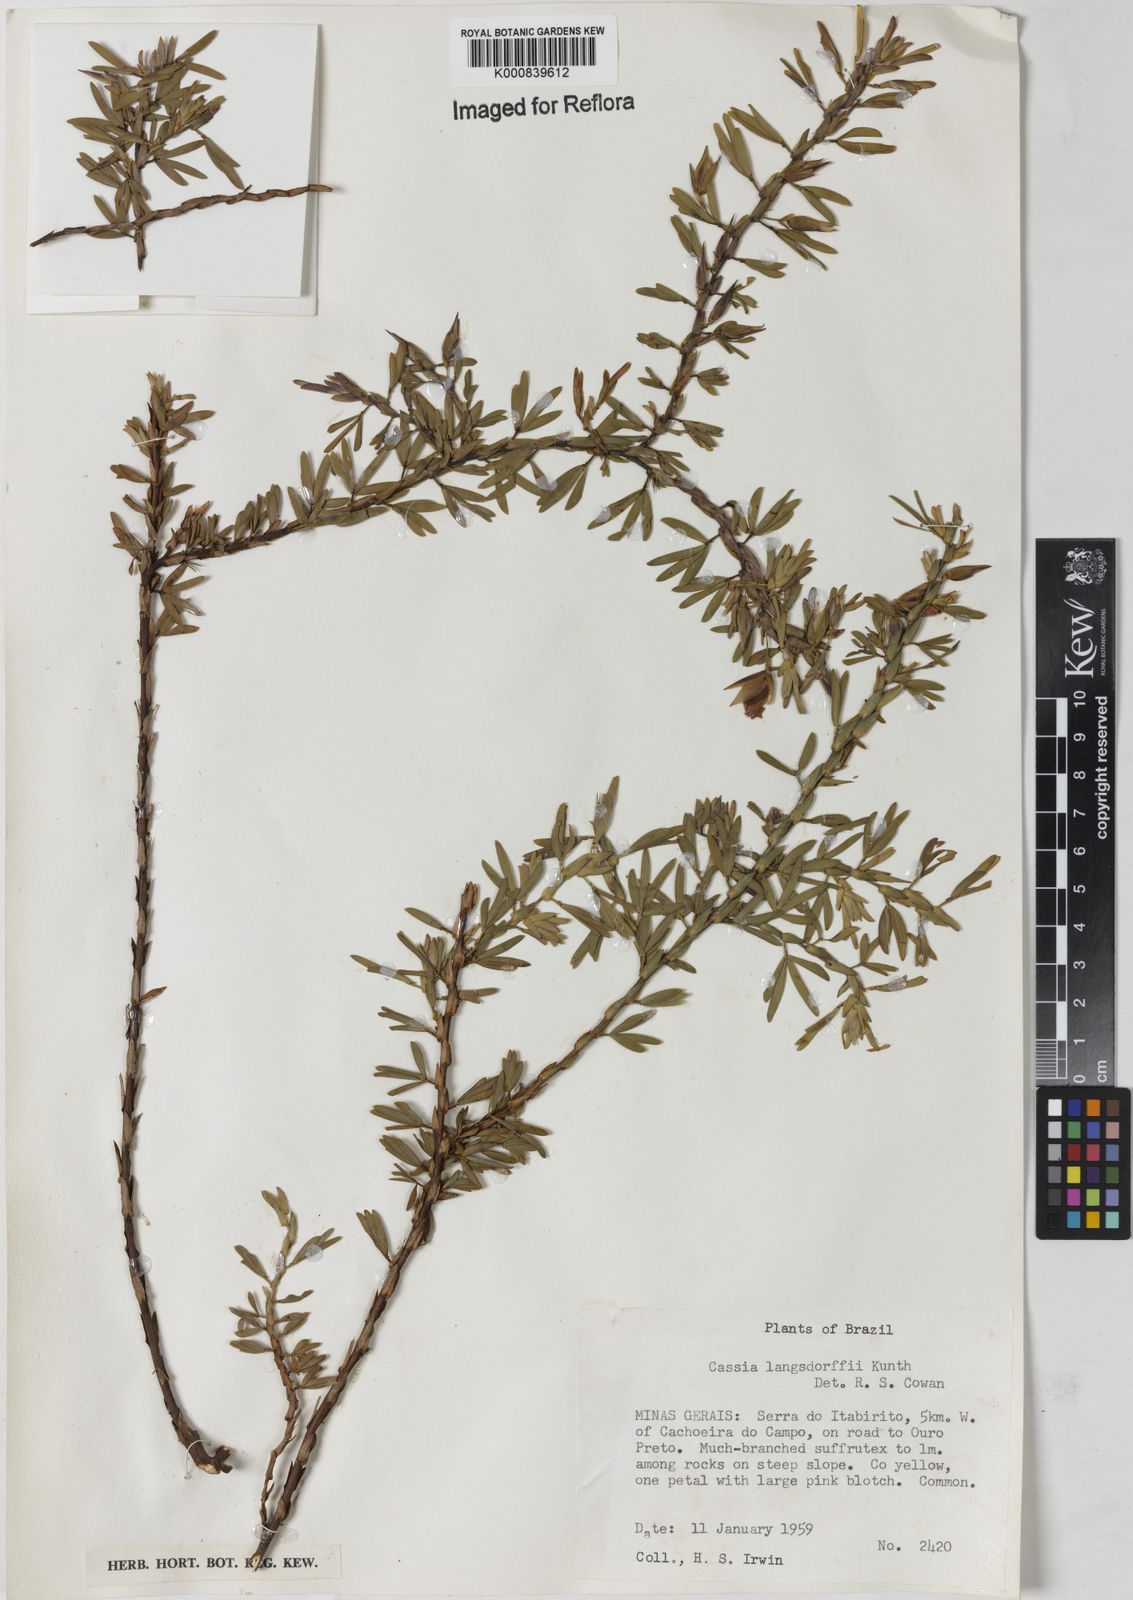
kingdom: Plantae
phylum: Tracheophyta
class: Magnoliopsida
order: Fabales
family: Fabaceae
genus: Chamaecrista
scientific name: Chamaecrista langsdorffii
